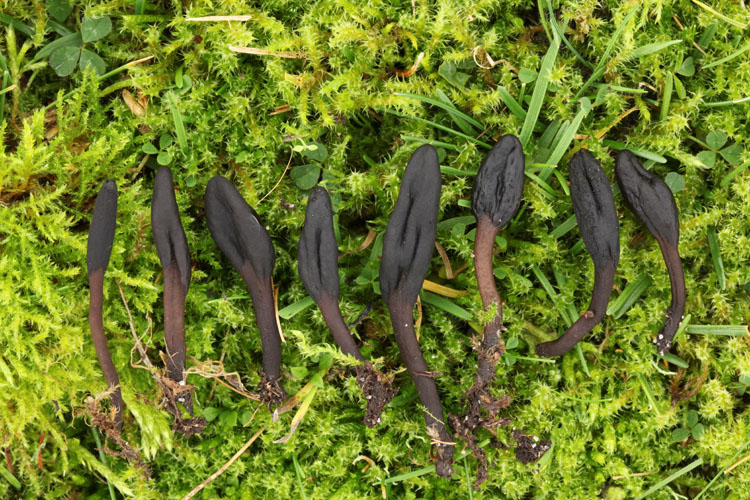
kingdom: Fungi
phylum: Ascomycota
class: Geoglossomycetes
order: Geoglossales
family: Geoglossaceae
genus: Hemileucoglossum
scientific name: Hemileucoglossum elongatum
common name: småsporet jordtunge
